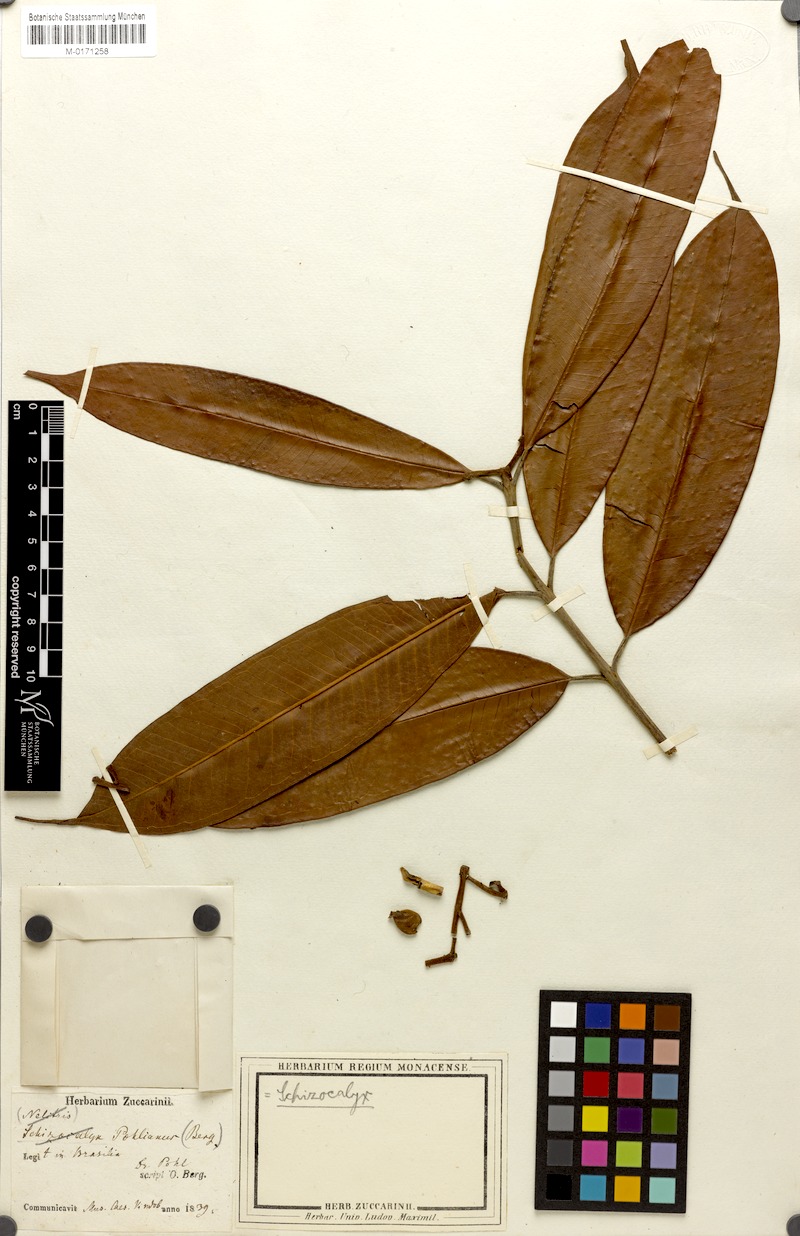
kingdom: Plantae
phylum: Tracheophyta
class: Magnoliopsida
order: Myrtales
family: Myrtaceae
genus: Calycorectes
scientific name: Calycorectes pohlianus
